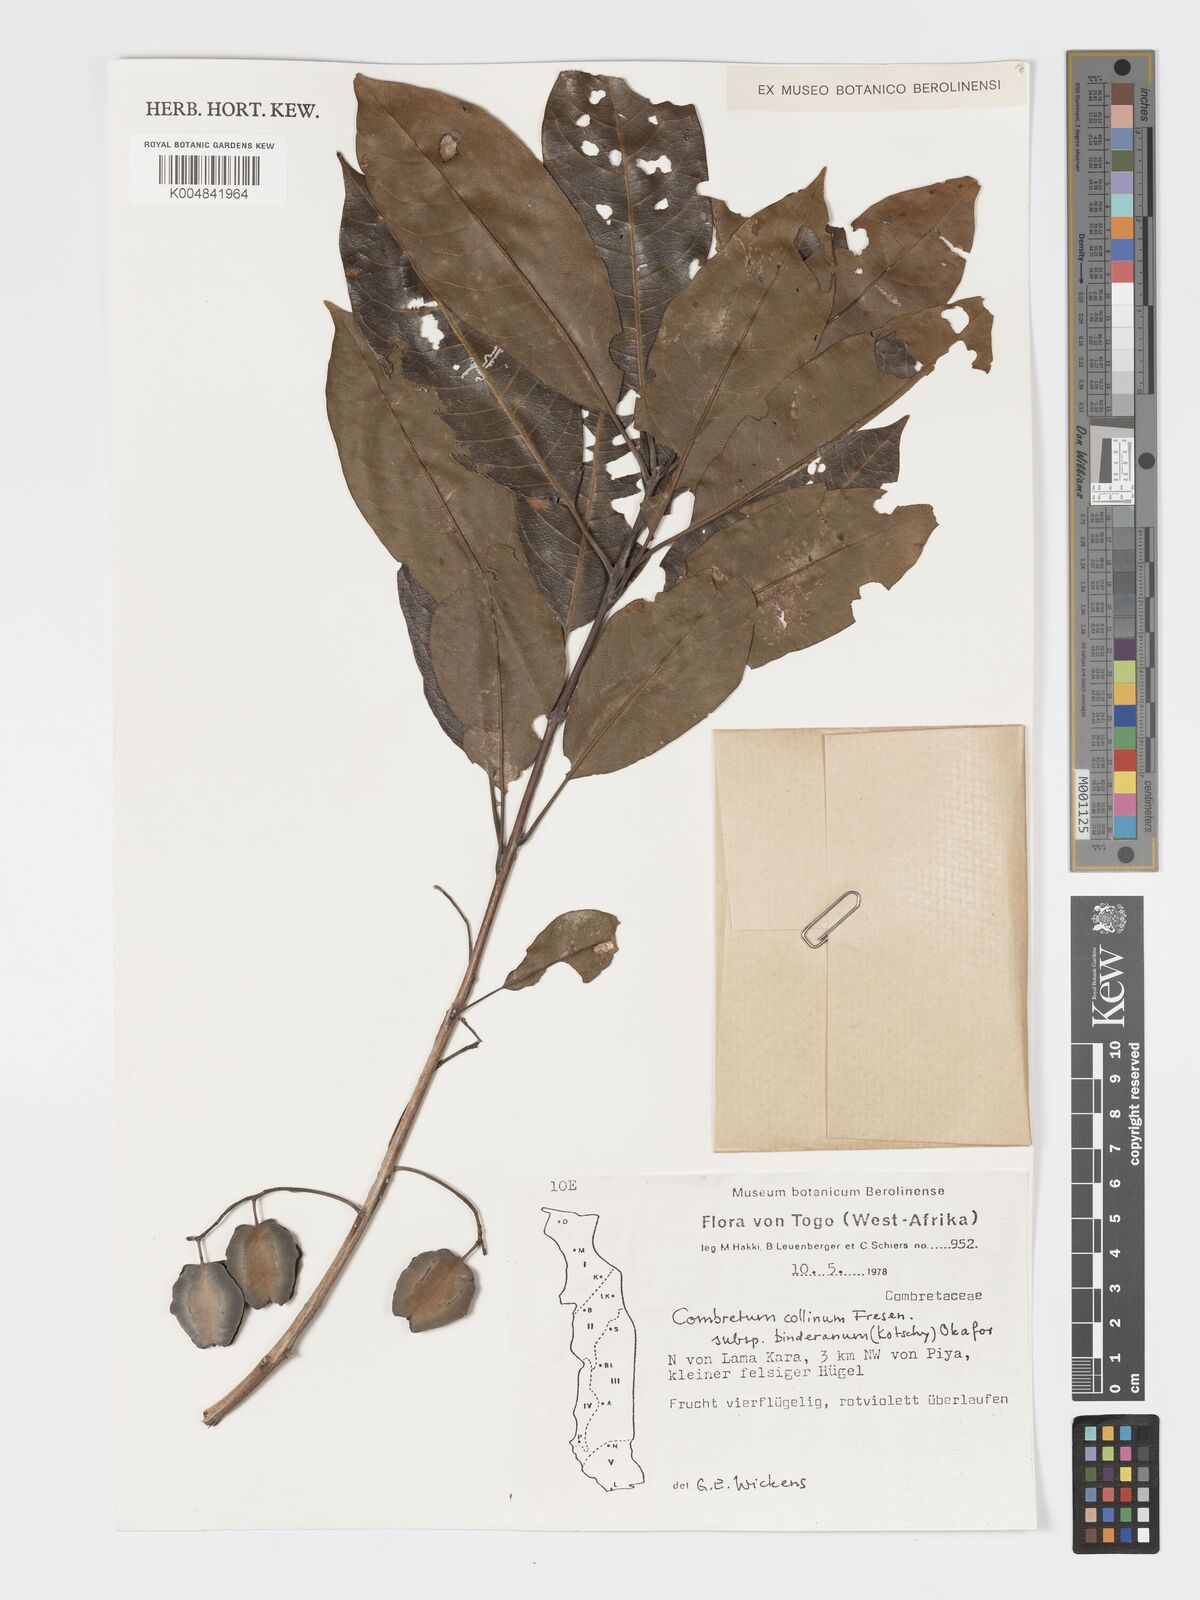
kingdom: Plantae
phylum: Tracheophyta
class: Magnoliopsida
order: Myrtales
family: Combretaceae
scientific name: Combretaceae
